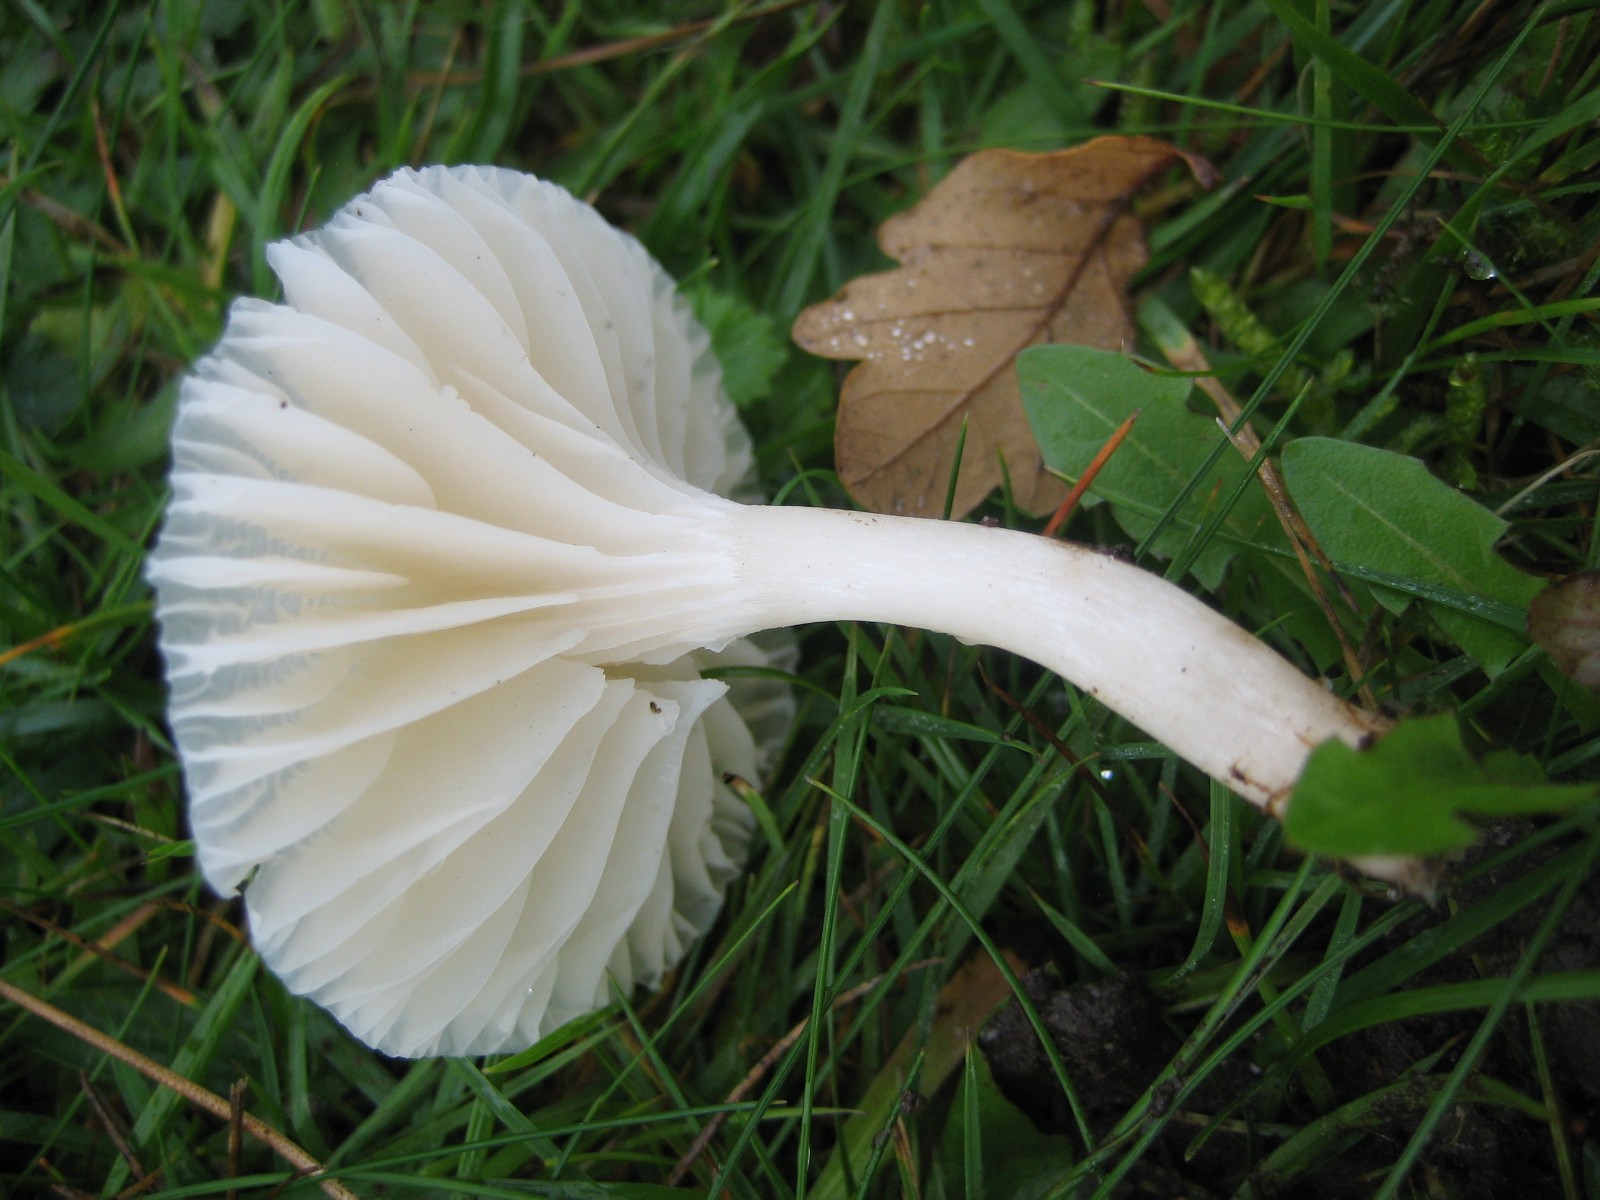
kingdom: Fungi
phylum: Basidiomycota
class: Agaricomycetes
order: Agaricales
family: Hygrophoraceae
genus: Cuphophyllus
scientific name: Cuphophyllus virgineus
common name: snehvid vokshat
